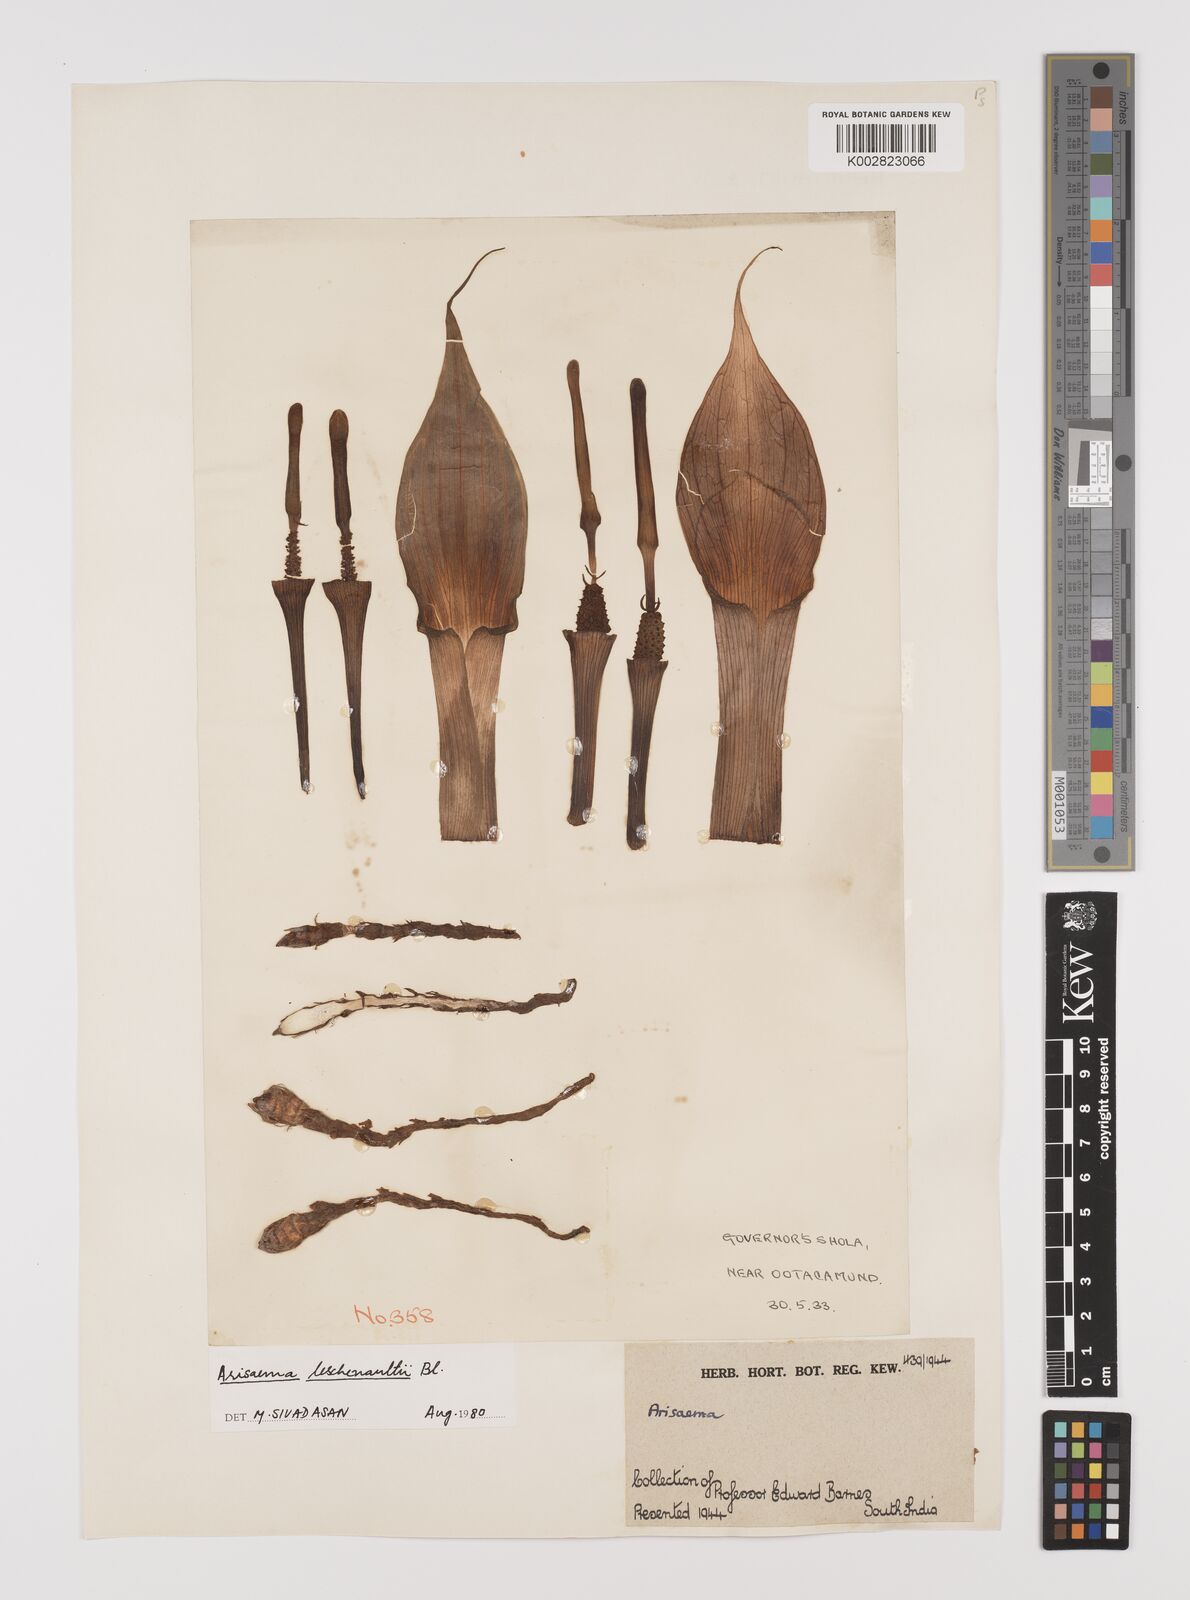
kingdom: Plantae
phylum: Tracheophyta
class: Liliopsida
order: Alismatales
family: Araceae
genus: Arisaema
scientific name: Arisaema leschenaultii
